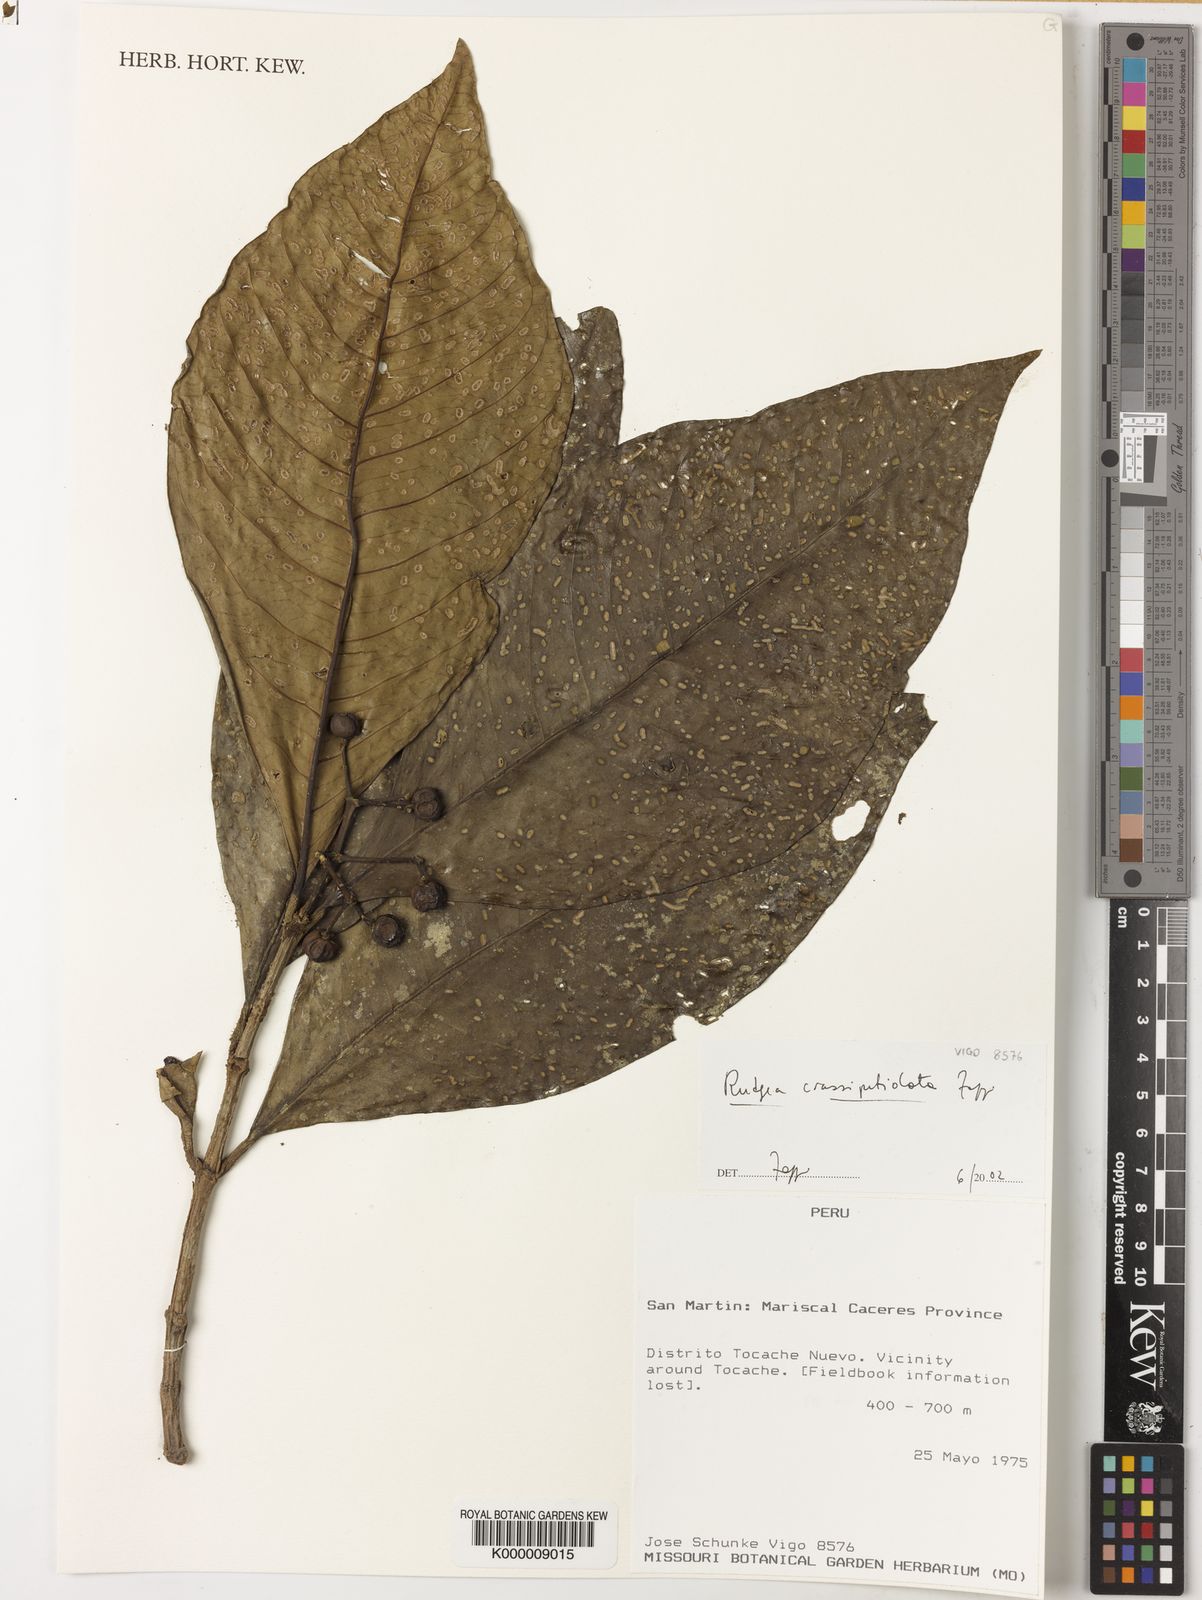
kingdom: Plantae
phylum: Tracheophyta
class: Magnoliopsida
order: Gentianales
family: Rubiaceae
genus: Rudgea
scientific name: Rudgea crassipetiolata
